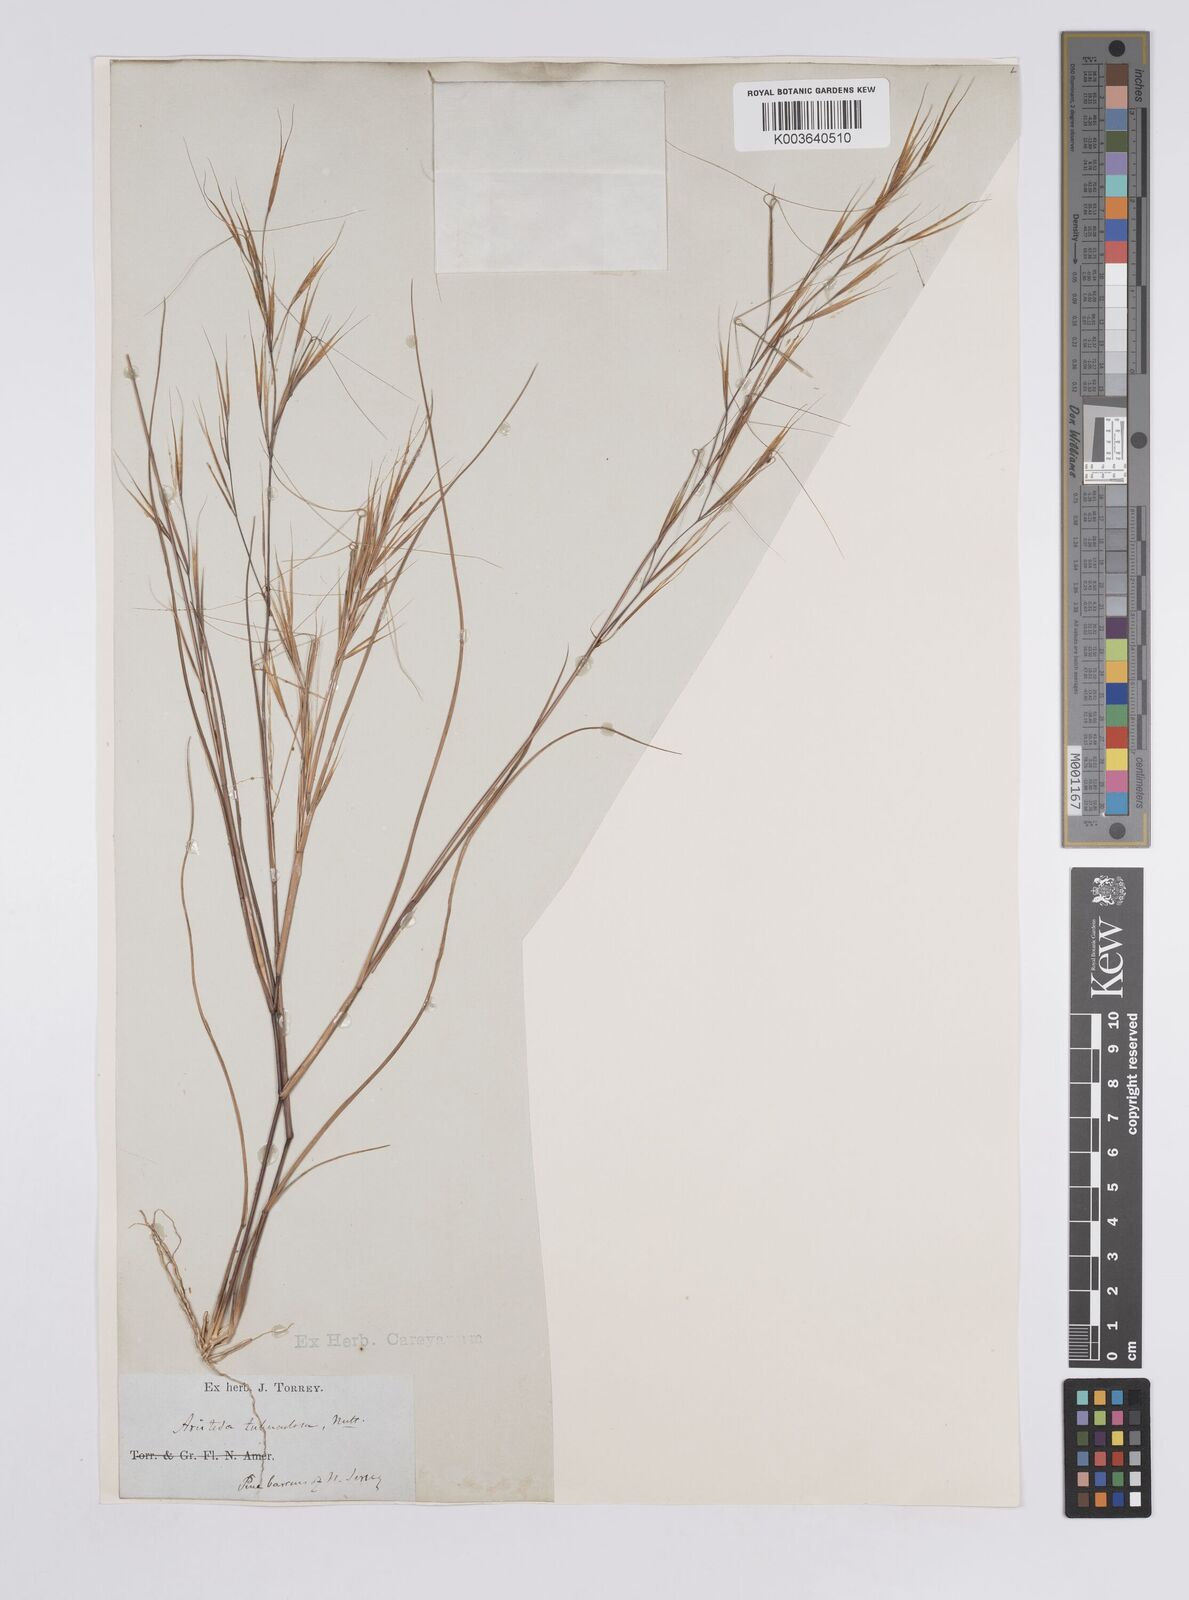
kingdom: Plantae
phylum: Tracheophyta
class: Liliopsida
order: Poales
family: Poaceae
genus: Aristida
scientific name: Aristida tuberculosa
